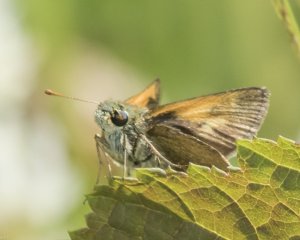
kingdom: Animalia
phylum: Arthropoda
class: Insecta
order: Lepidoptera
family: Hesperiidae
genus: Polites
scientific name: Polites themistocles
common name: Tawny-edged Skipper
